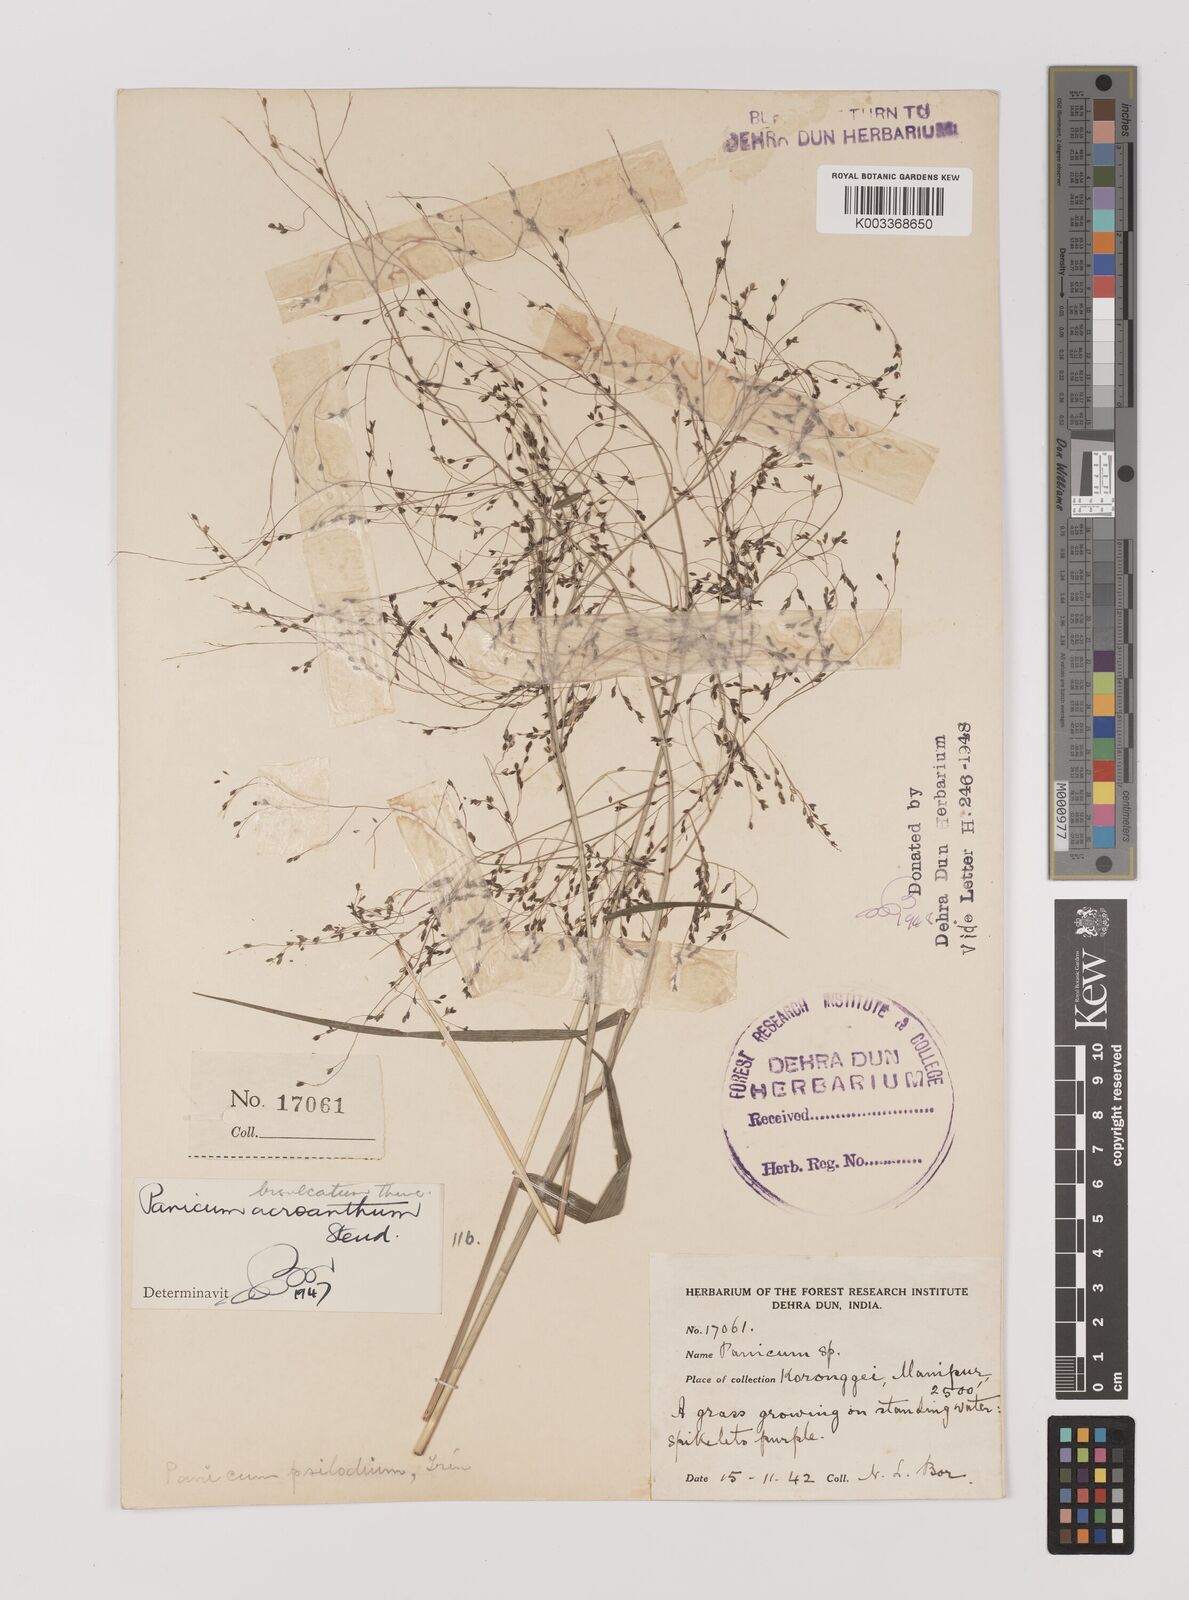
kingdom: Plantae
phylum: Tracheophyta
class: Liliopsida
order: Poales
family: Poaceae
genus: Panicum
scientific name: Panicum bisulcatum
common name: Japanese panicgrass
